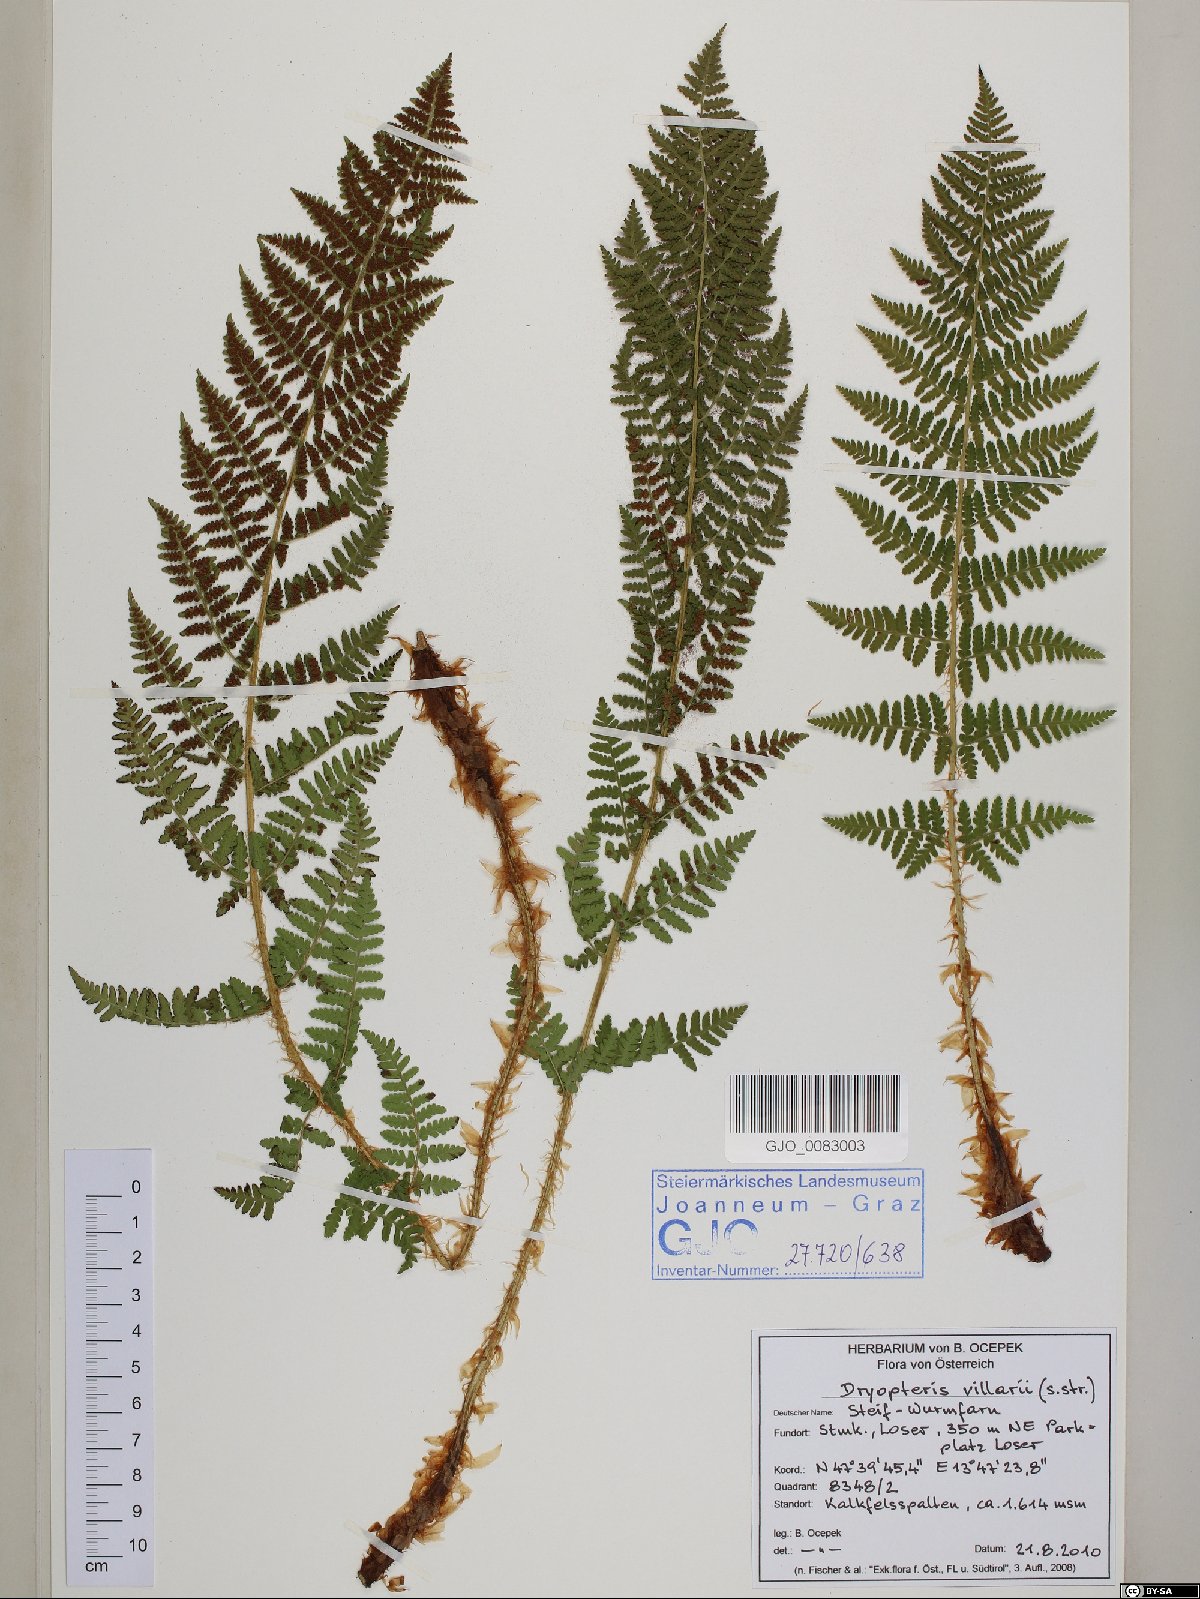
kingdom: Plantae
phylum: Tracheophyta
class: Polypodiopsida
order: Polypodiales
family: Dryopteridaceae
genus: Dryopteris
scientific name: Dryopteris villarii
